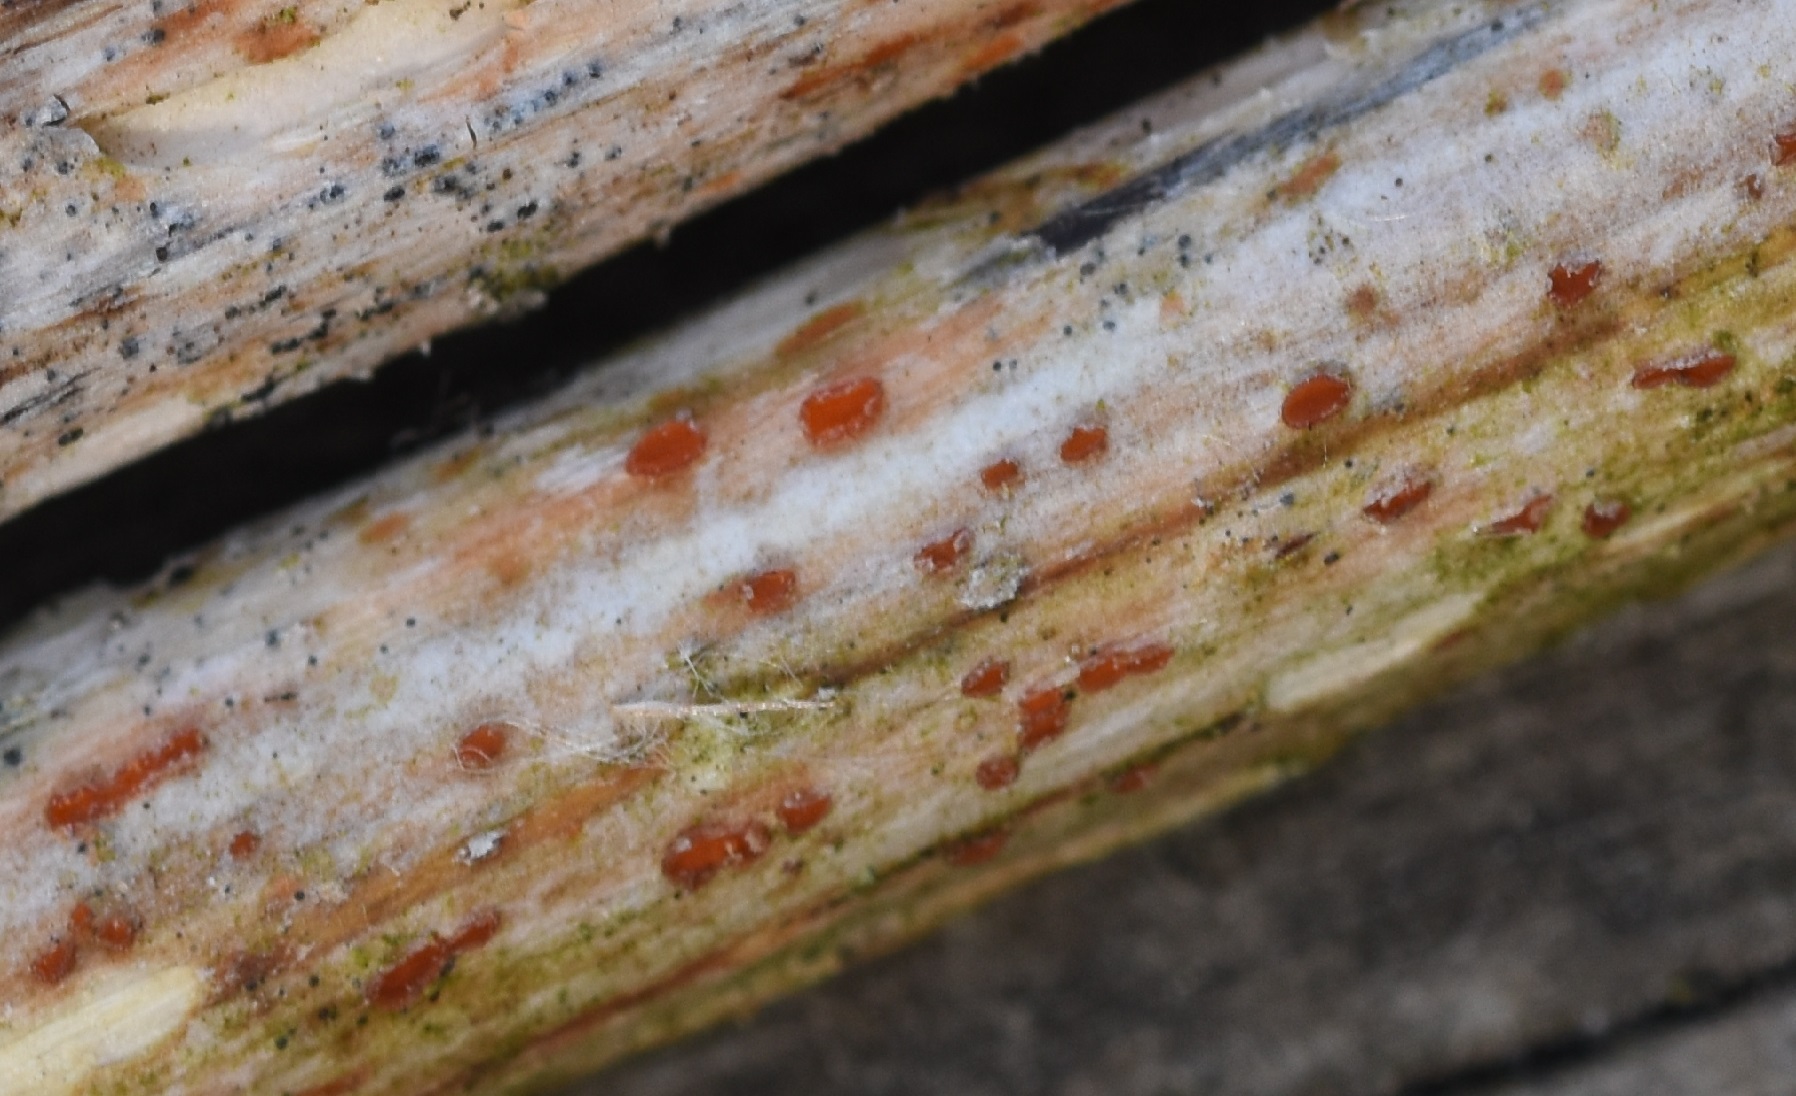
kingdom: Fungi
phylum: Ascomycota
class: Leotiomycetes
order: Helotiales
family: Calloriaceae
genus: Calloria
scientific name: Calloria urticae
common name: nælde-orangeskive
